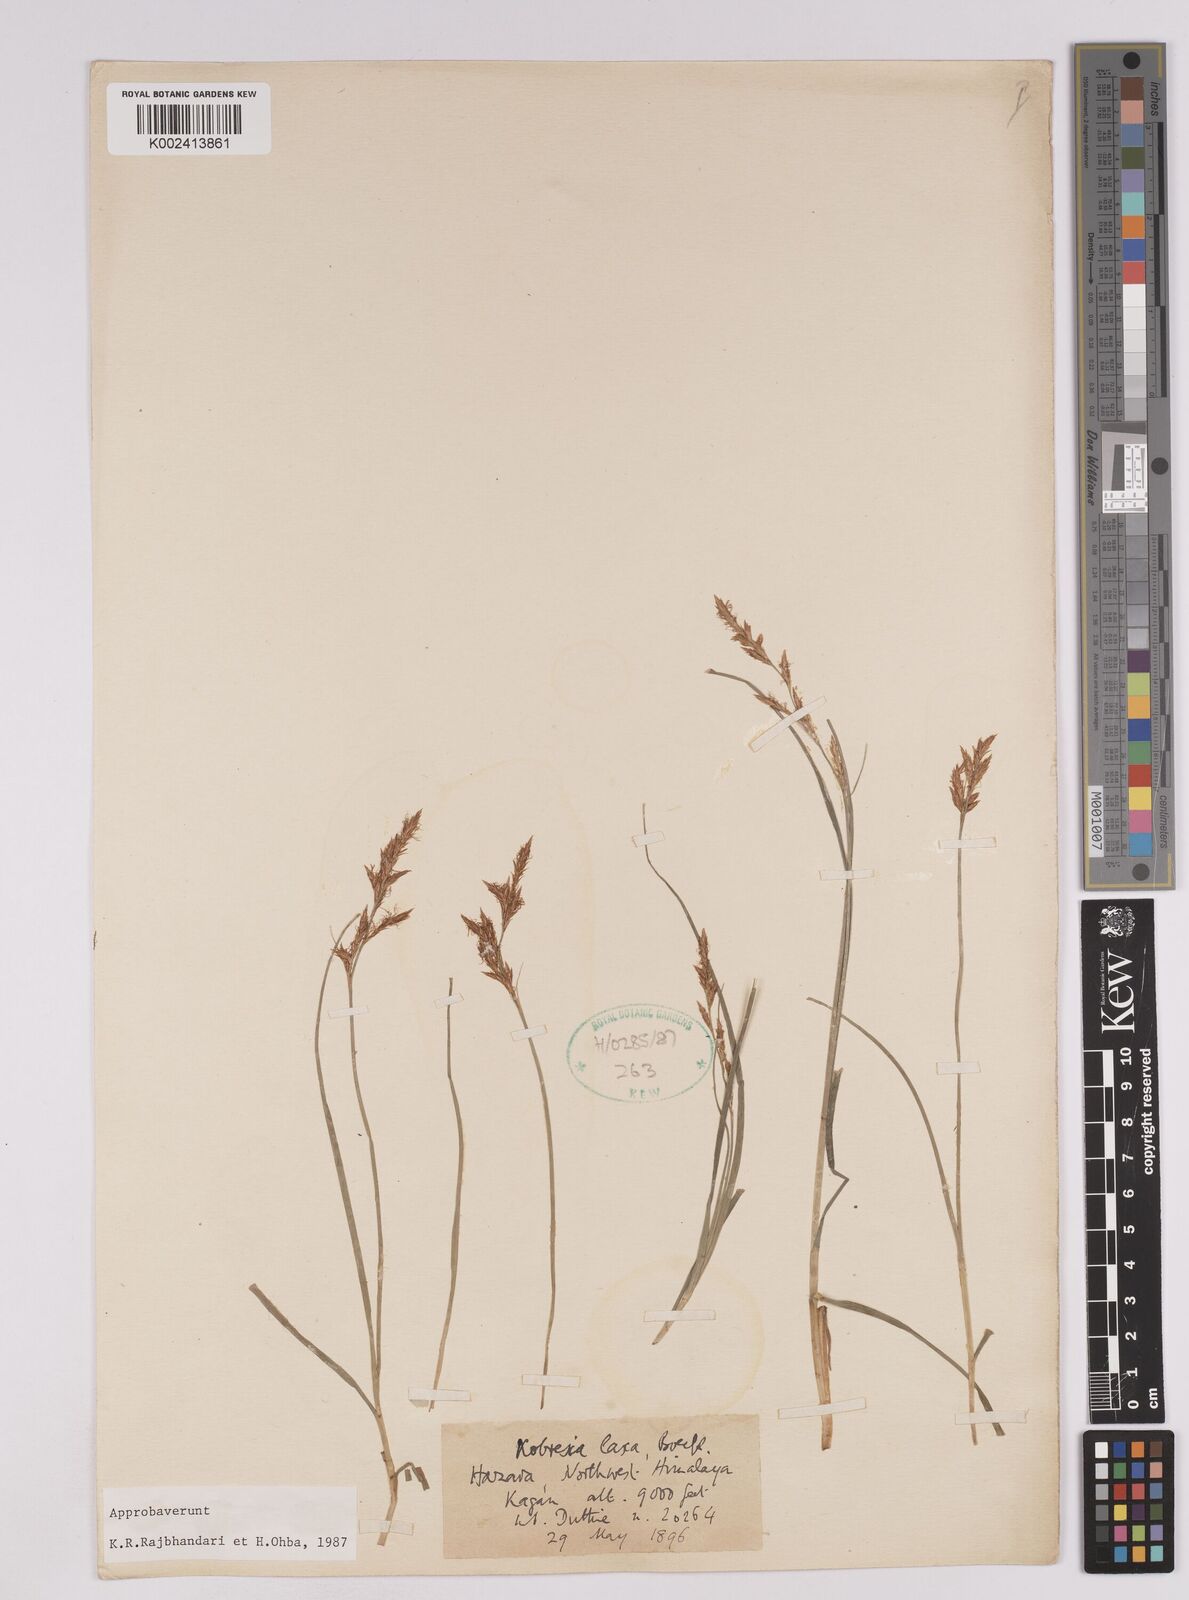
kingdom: Plantae
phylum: Tracheophyta
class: Liliopsida
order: Poales
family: Cyperaceae
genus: Carex
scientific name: Carex pseudolaxa
